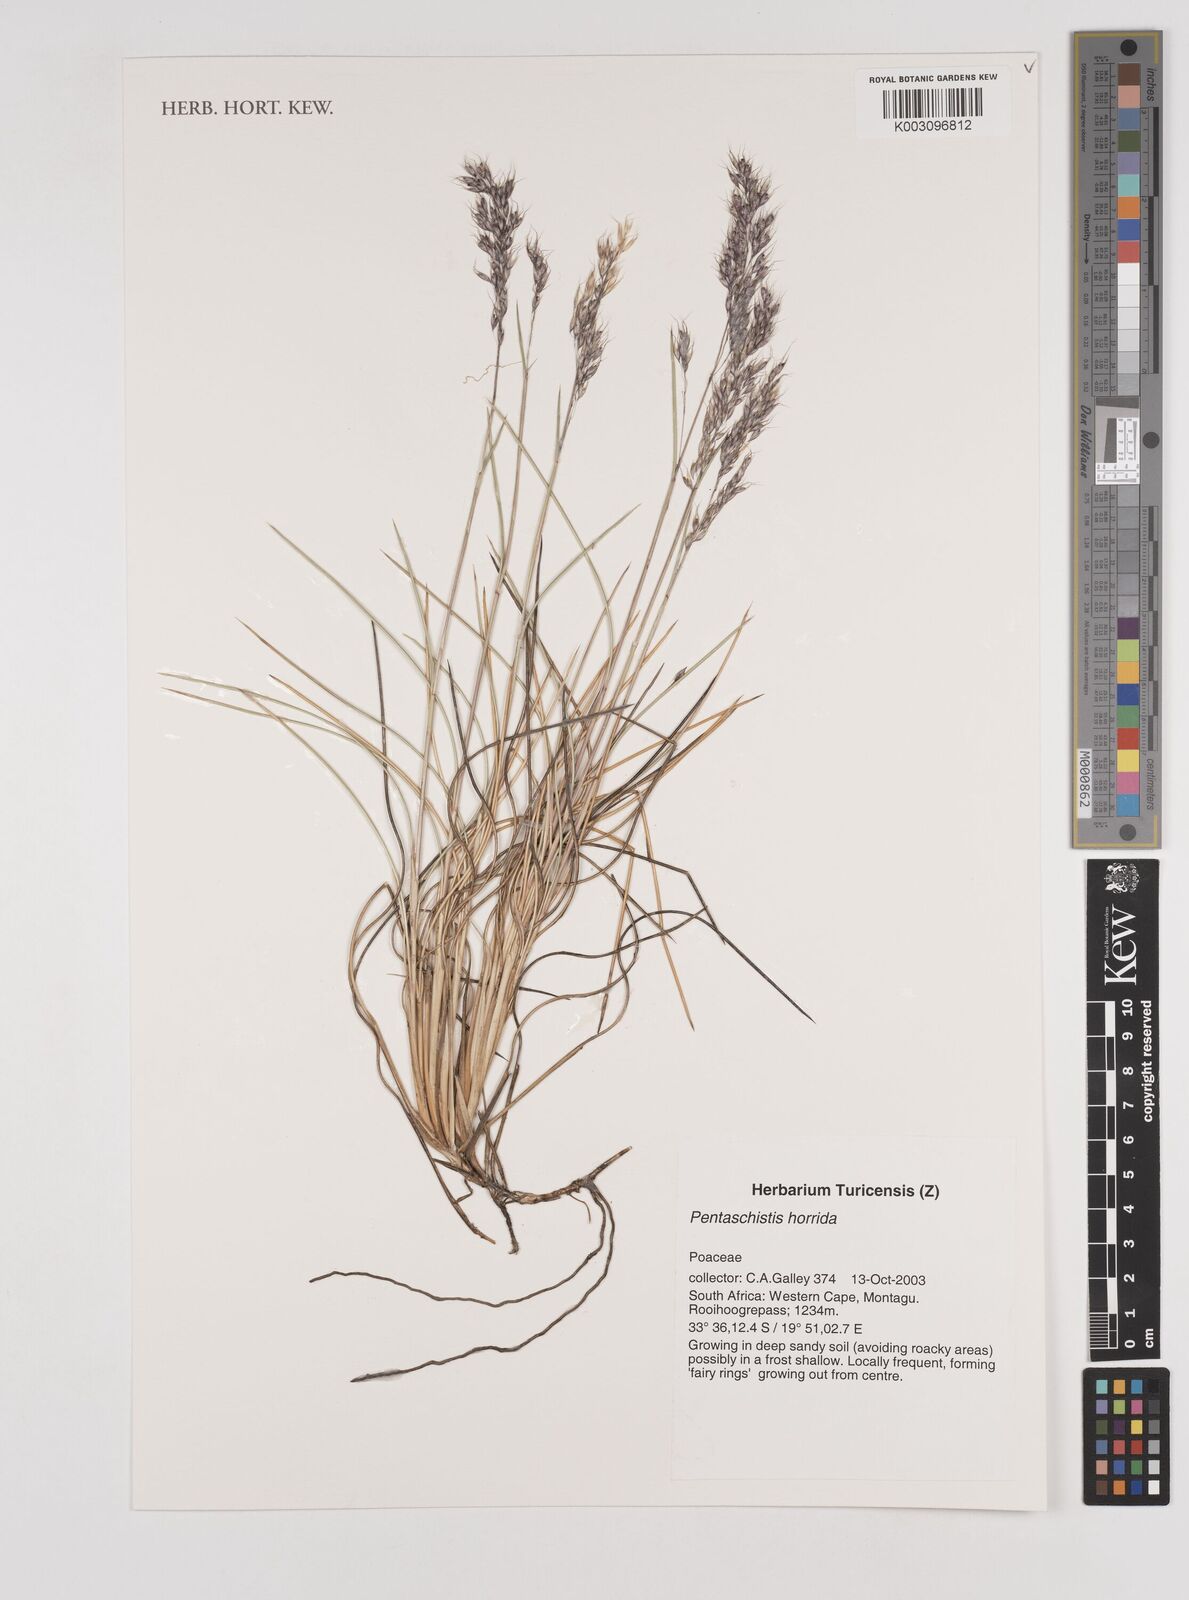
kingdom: Plantae
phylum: Tracheophyta
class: Liliopsida
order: Poales
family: Poaceae
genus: Pentameris
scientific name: Pentameris horrida
